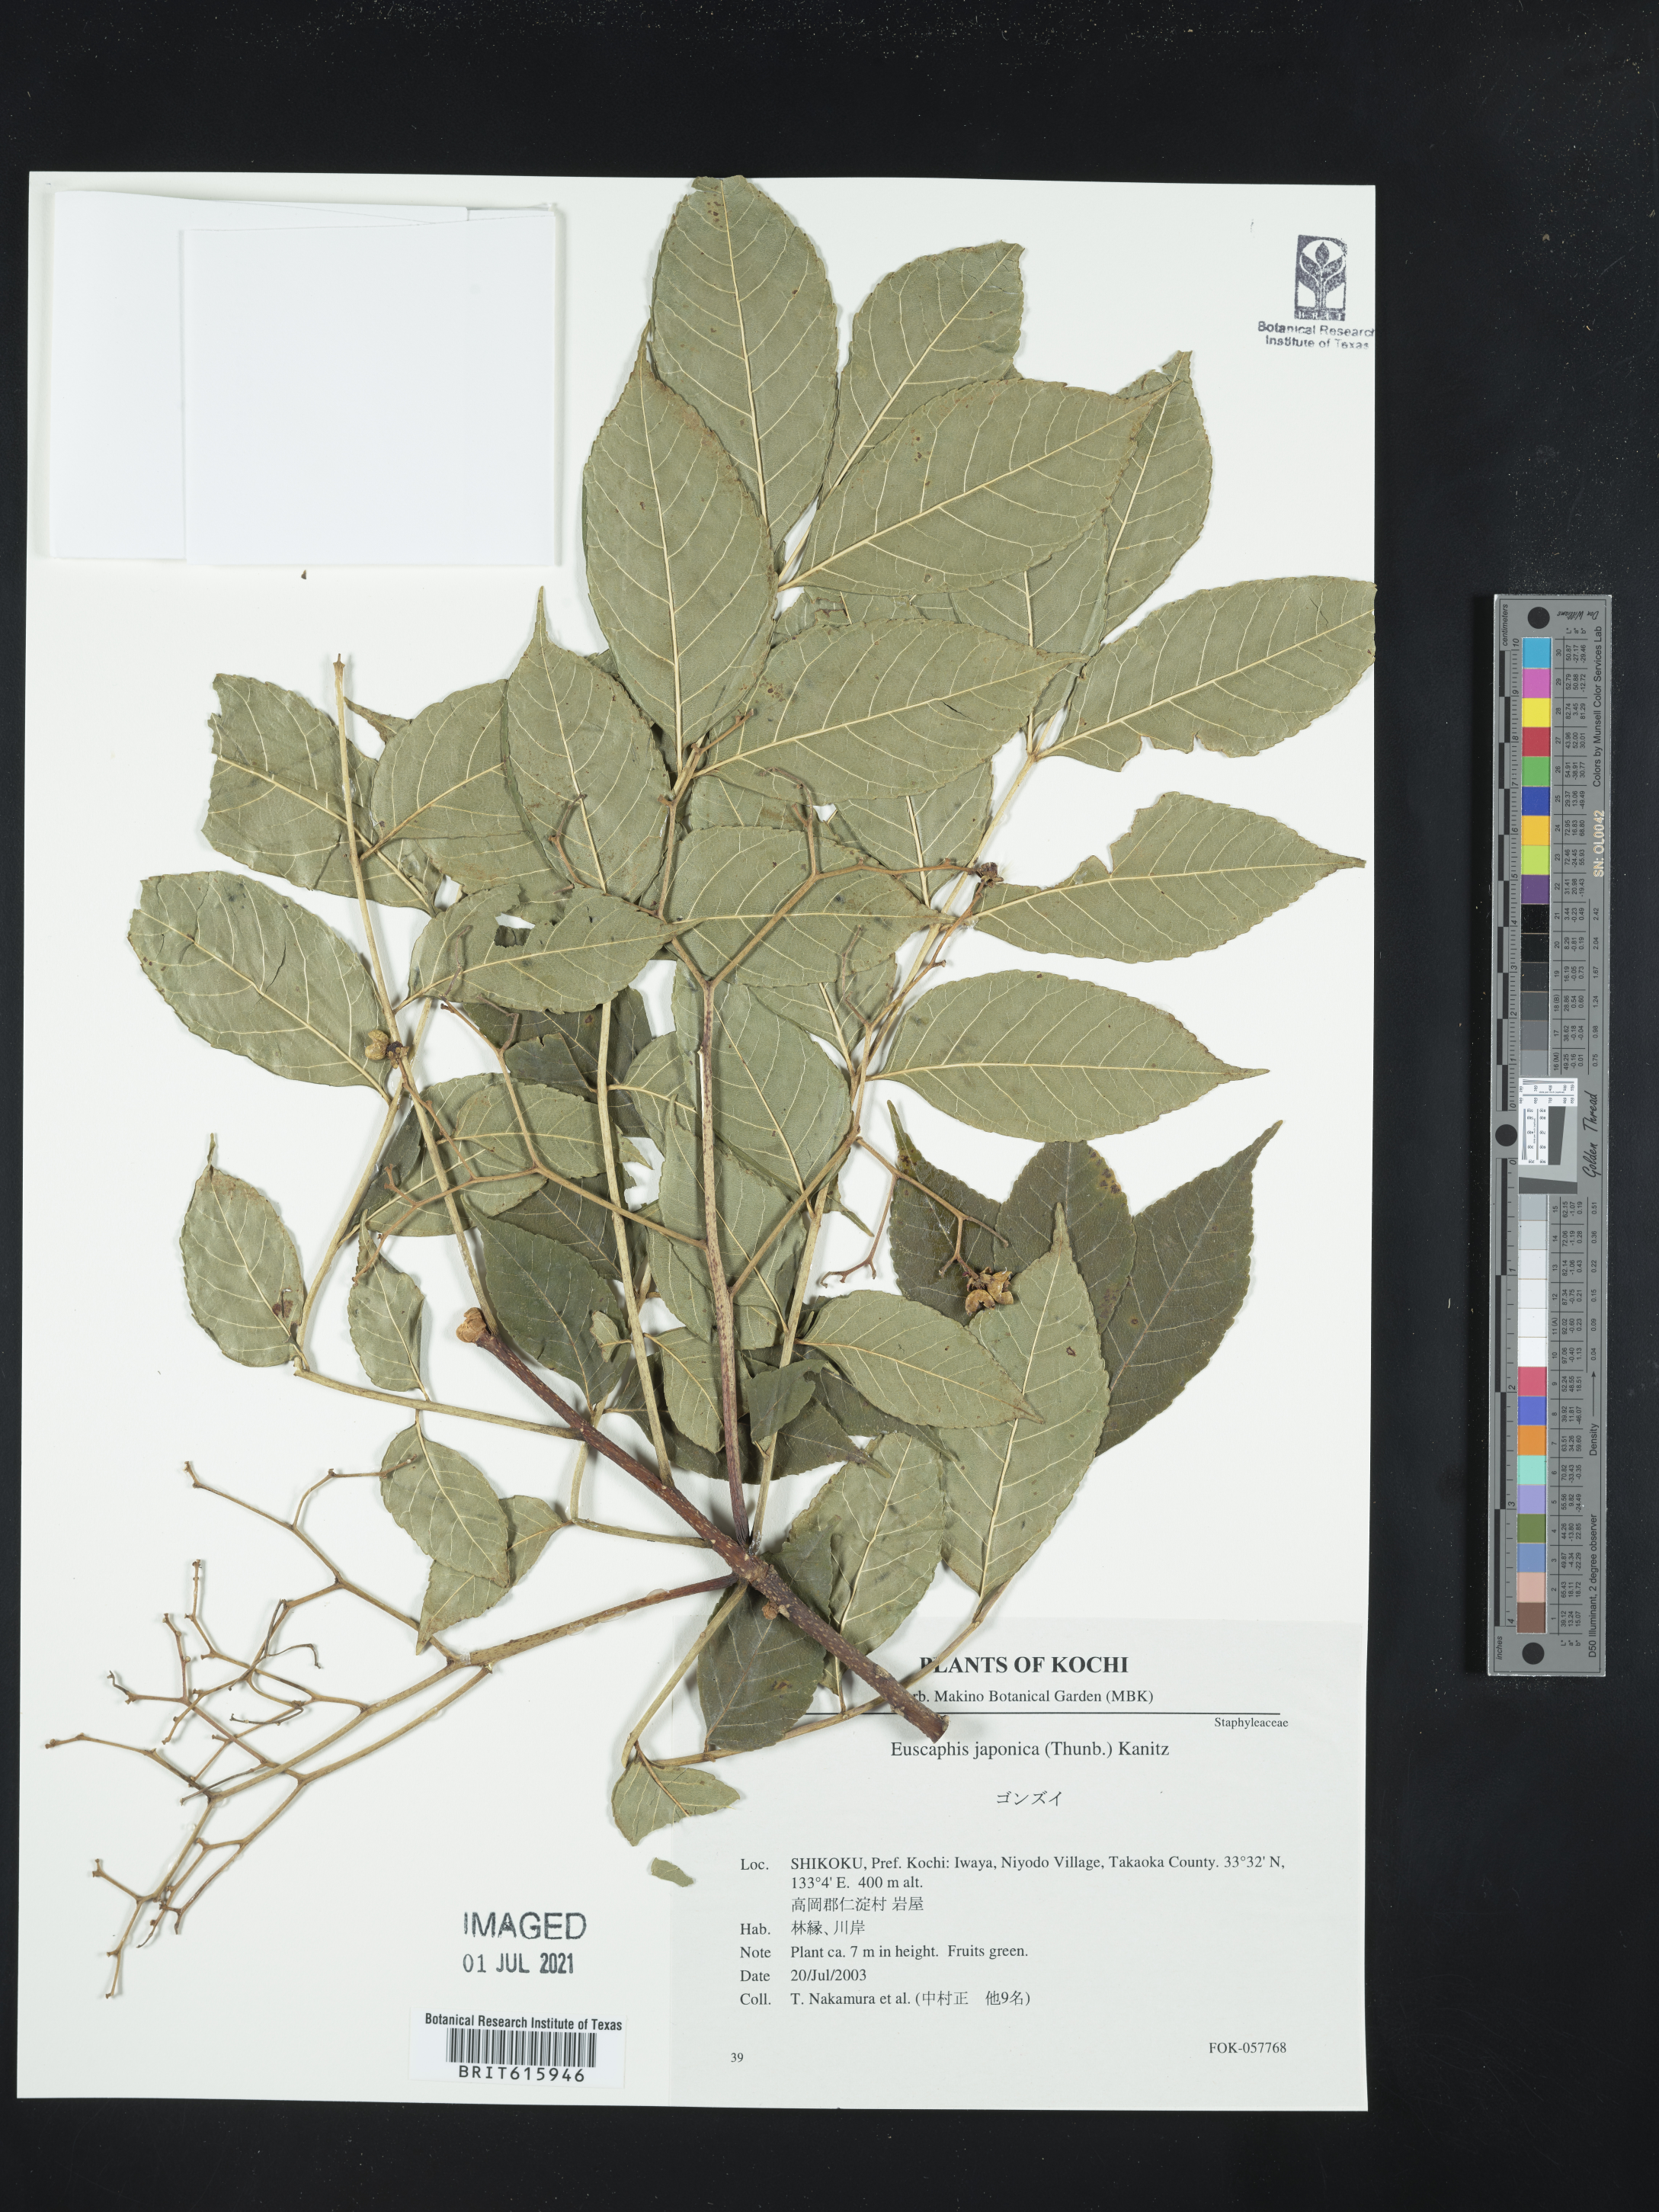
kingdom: Plantae
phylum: Tracheophyta
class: Magnoliopsida
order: Crossosomatales
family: Staphyleaceae
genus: Staphylea
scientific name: Staphylea japonica
